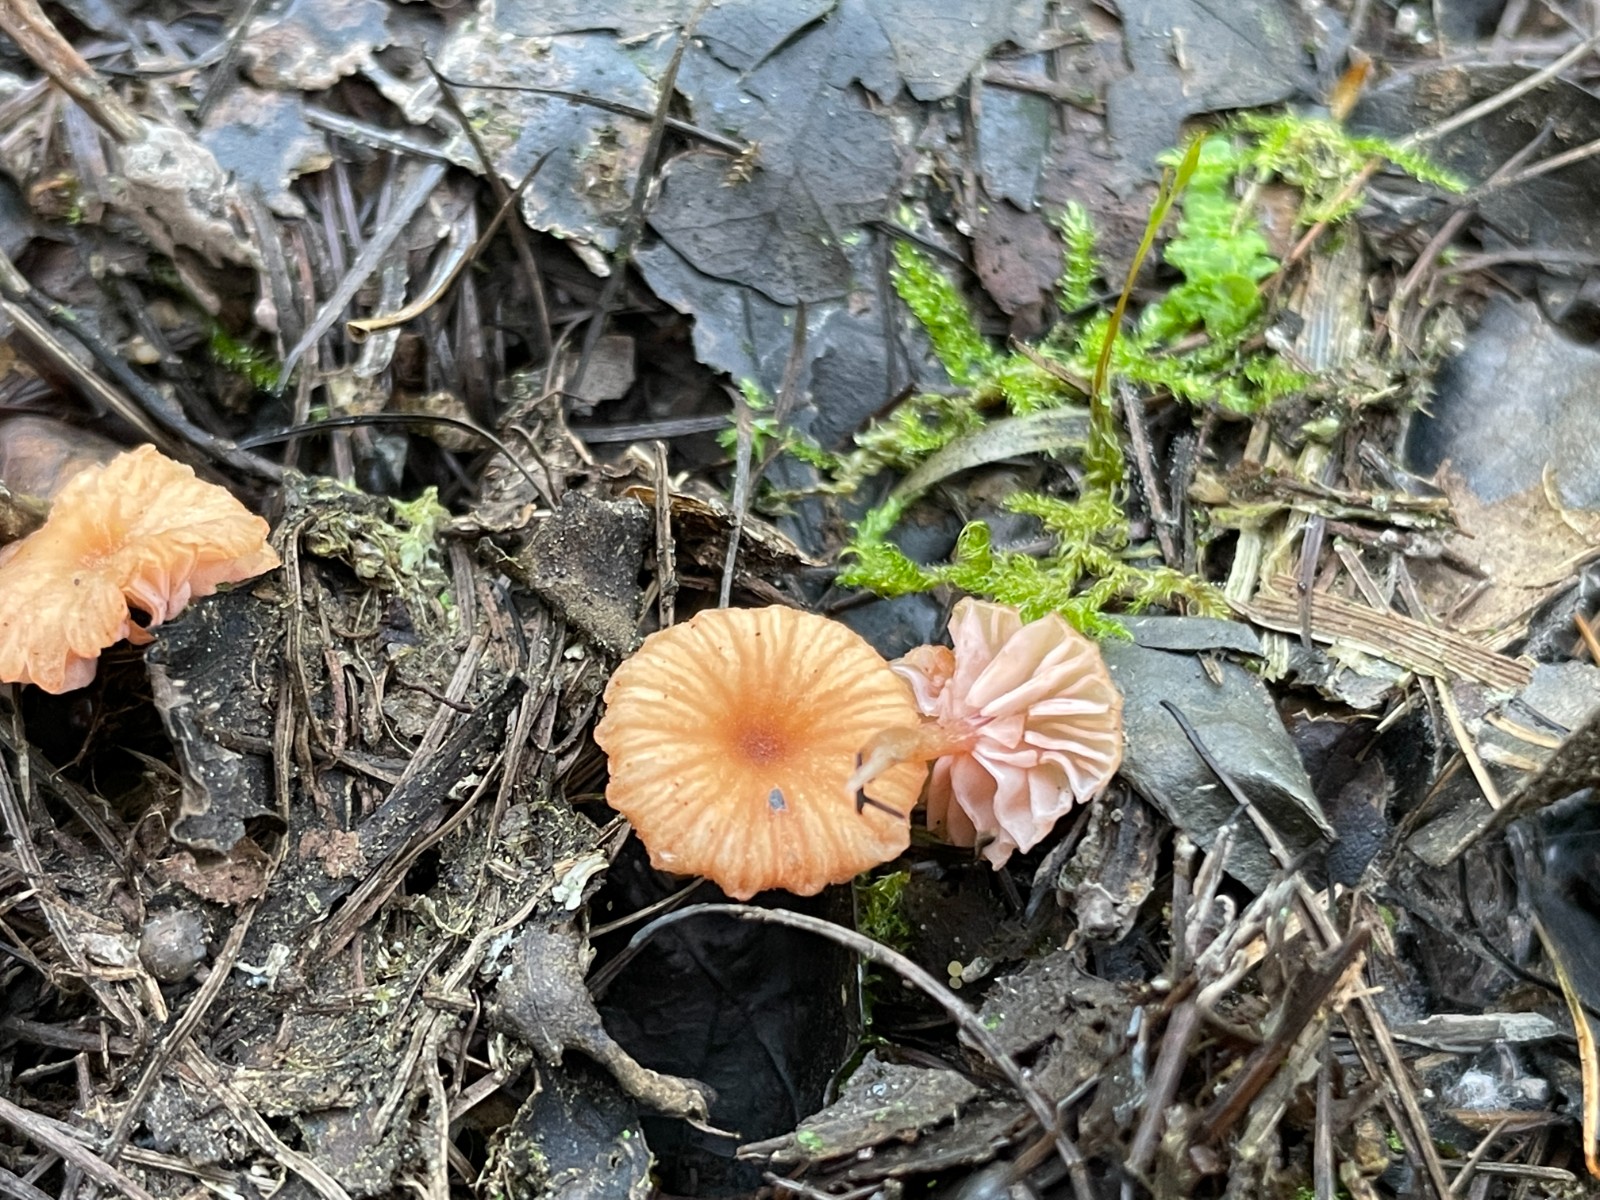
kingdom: Fungi
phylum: Basidiomycota
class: Agaricomycetes
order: Agaricales
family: Hydnangiaceae
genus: Laccaria
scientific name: Laccaria tortilis
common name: krybende ametysthat
